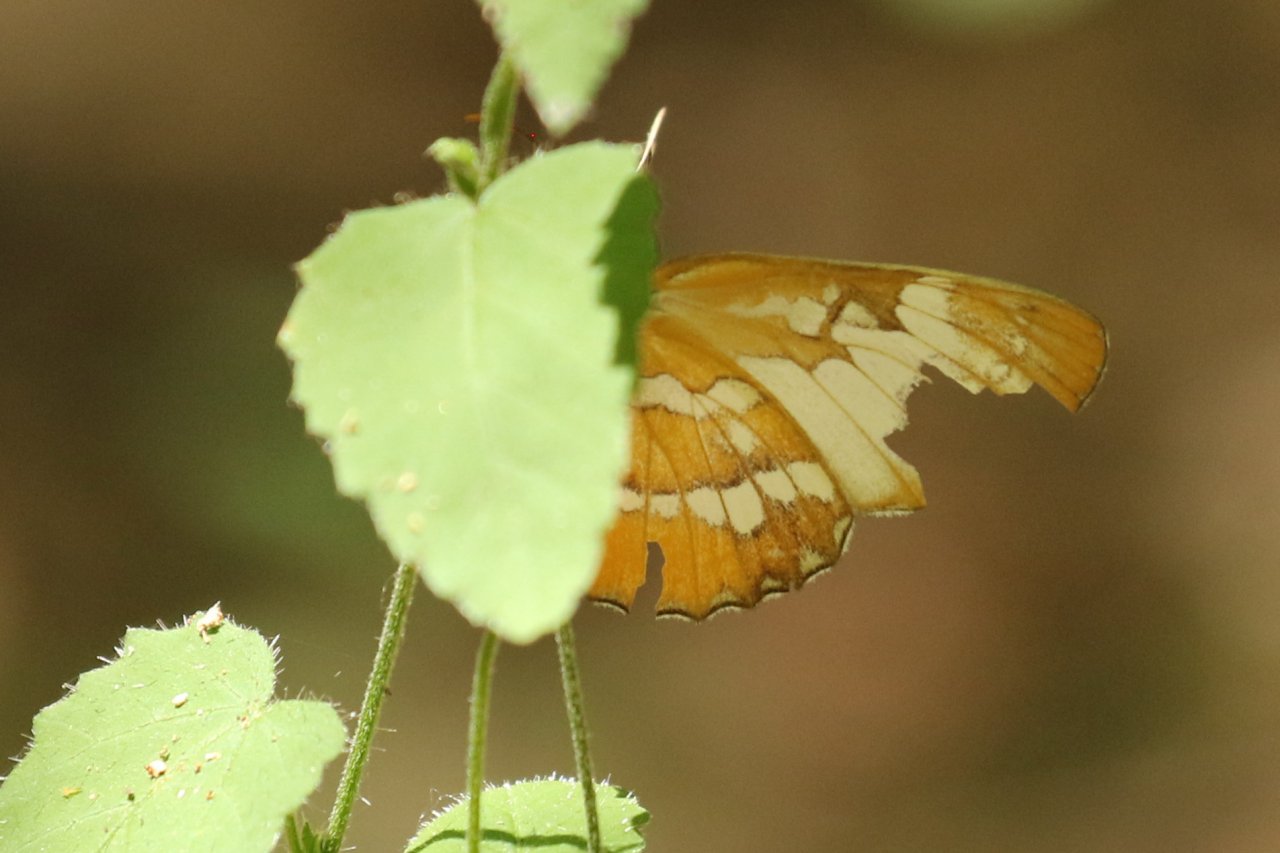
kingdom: Animalia
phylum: Arthropoda
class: Insecta
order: Lepidoptera
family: Nymphalidae
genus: Mestra
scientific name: Mestra amymone
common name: Common Mestra
